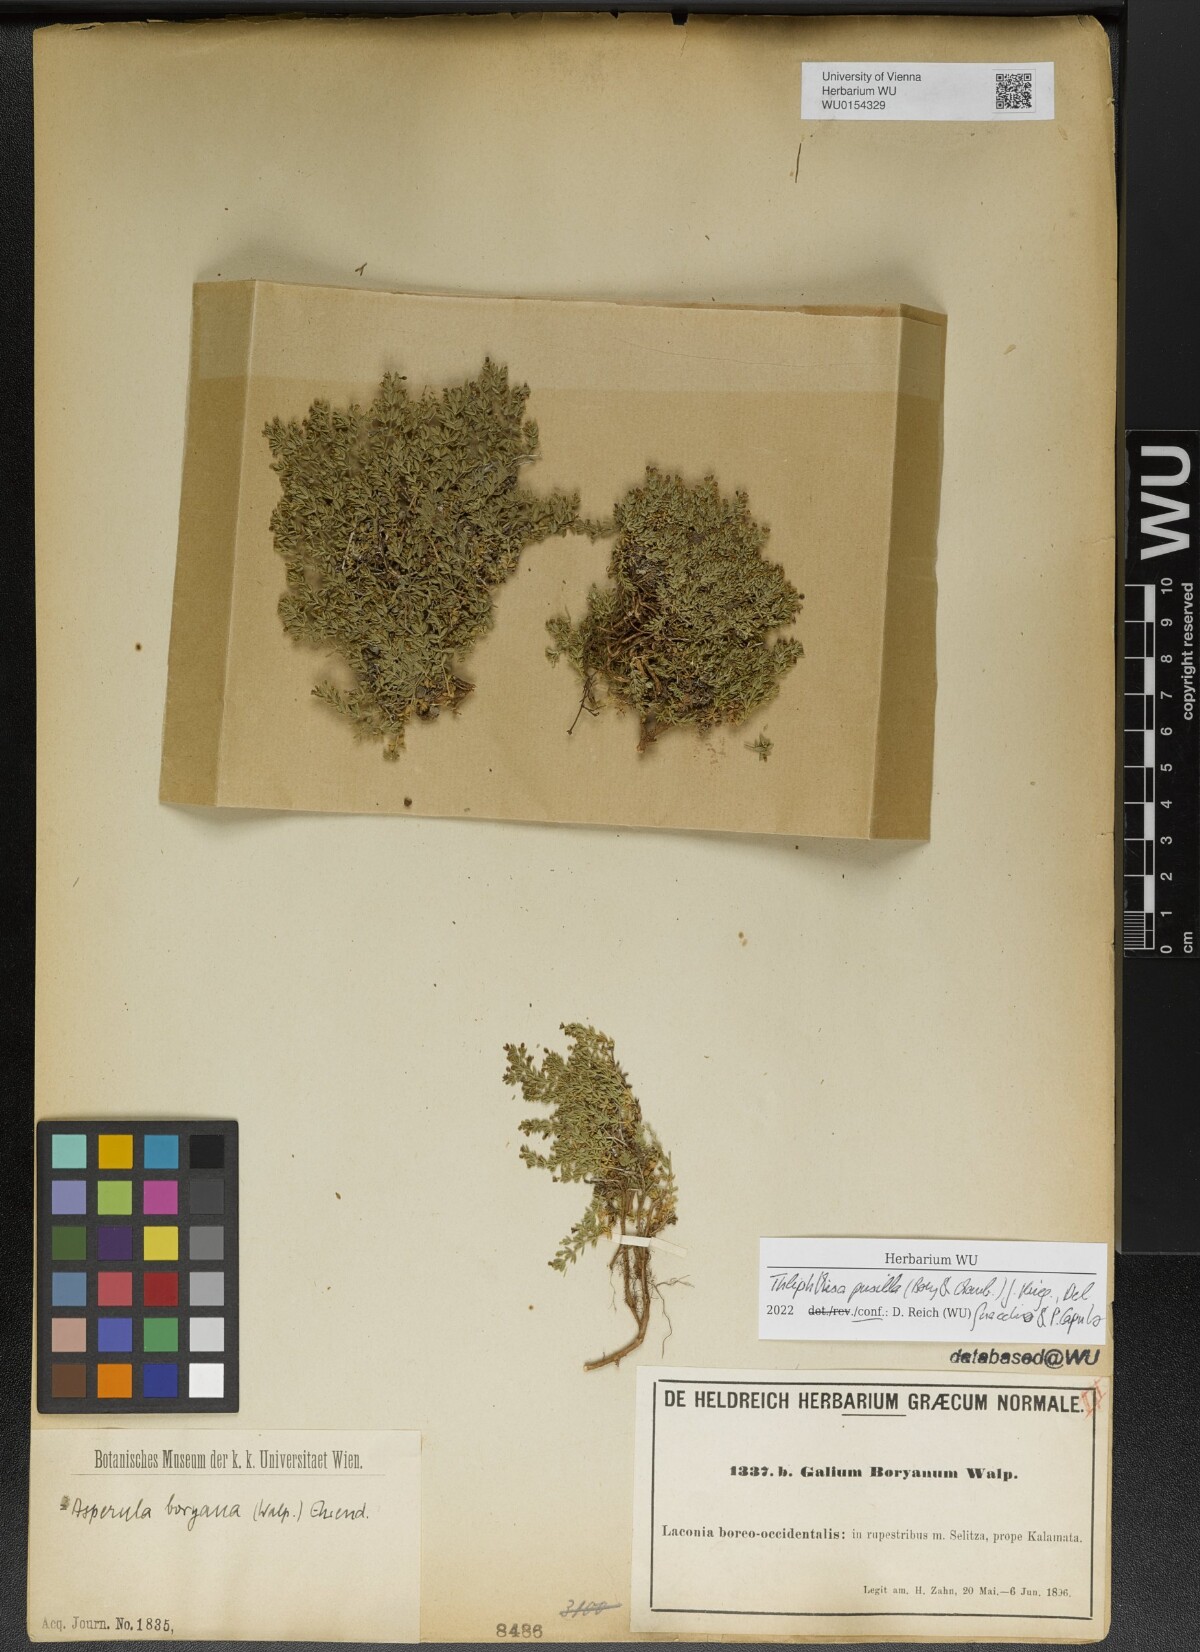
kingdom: Plantae
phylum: Tracheophyta
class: Magnoliopsida
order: Gentianales
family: Rubiaceae
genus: Thliphthisa
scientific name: Thliphthisa pusilla
